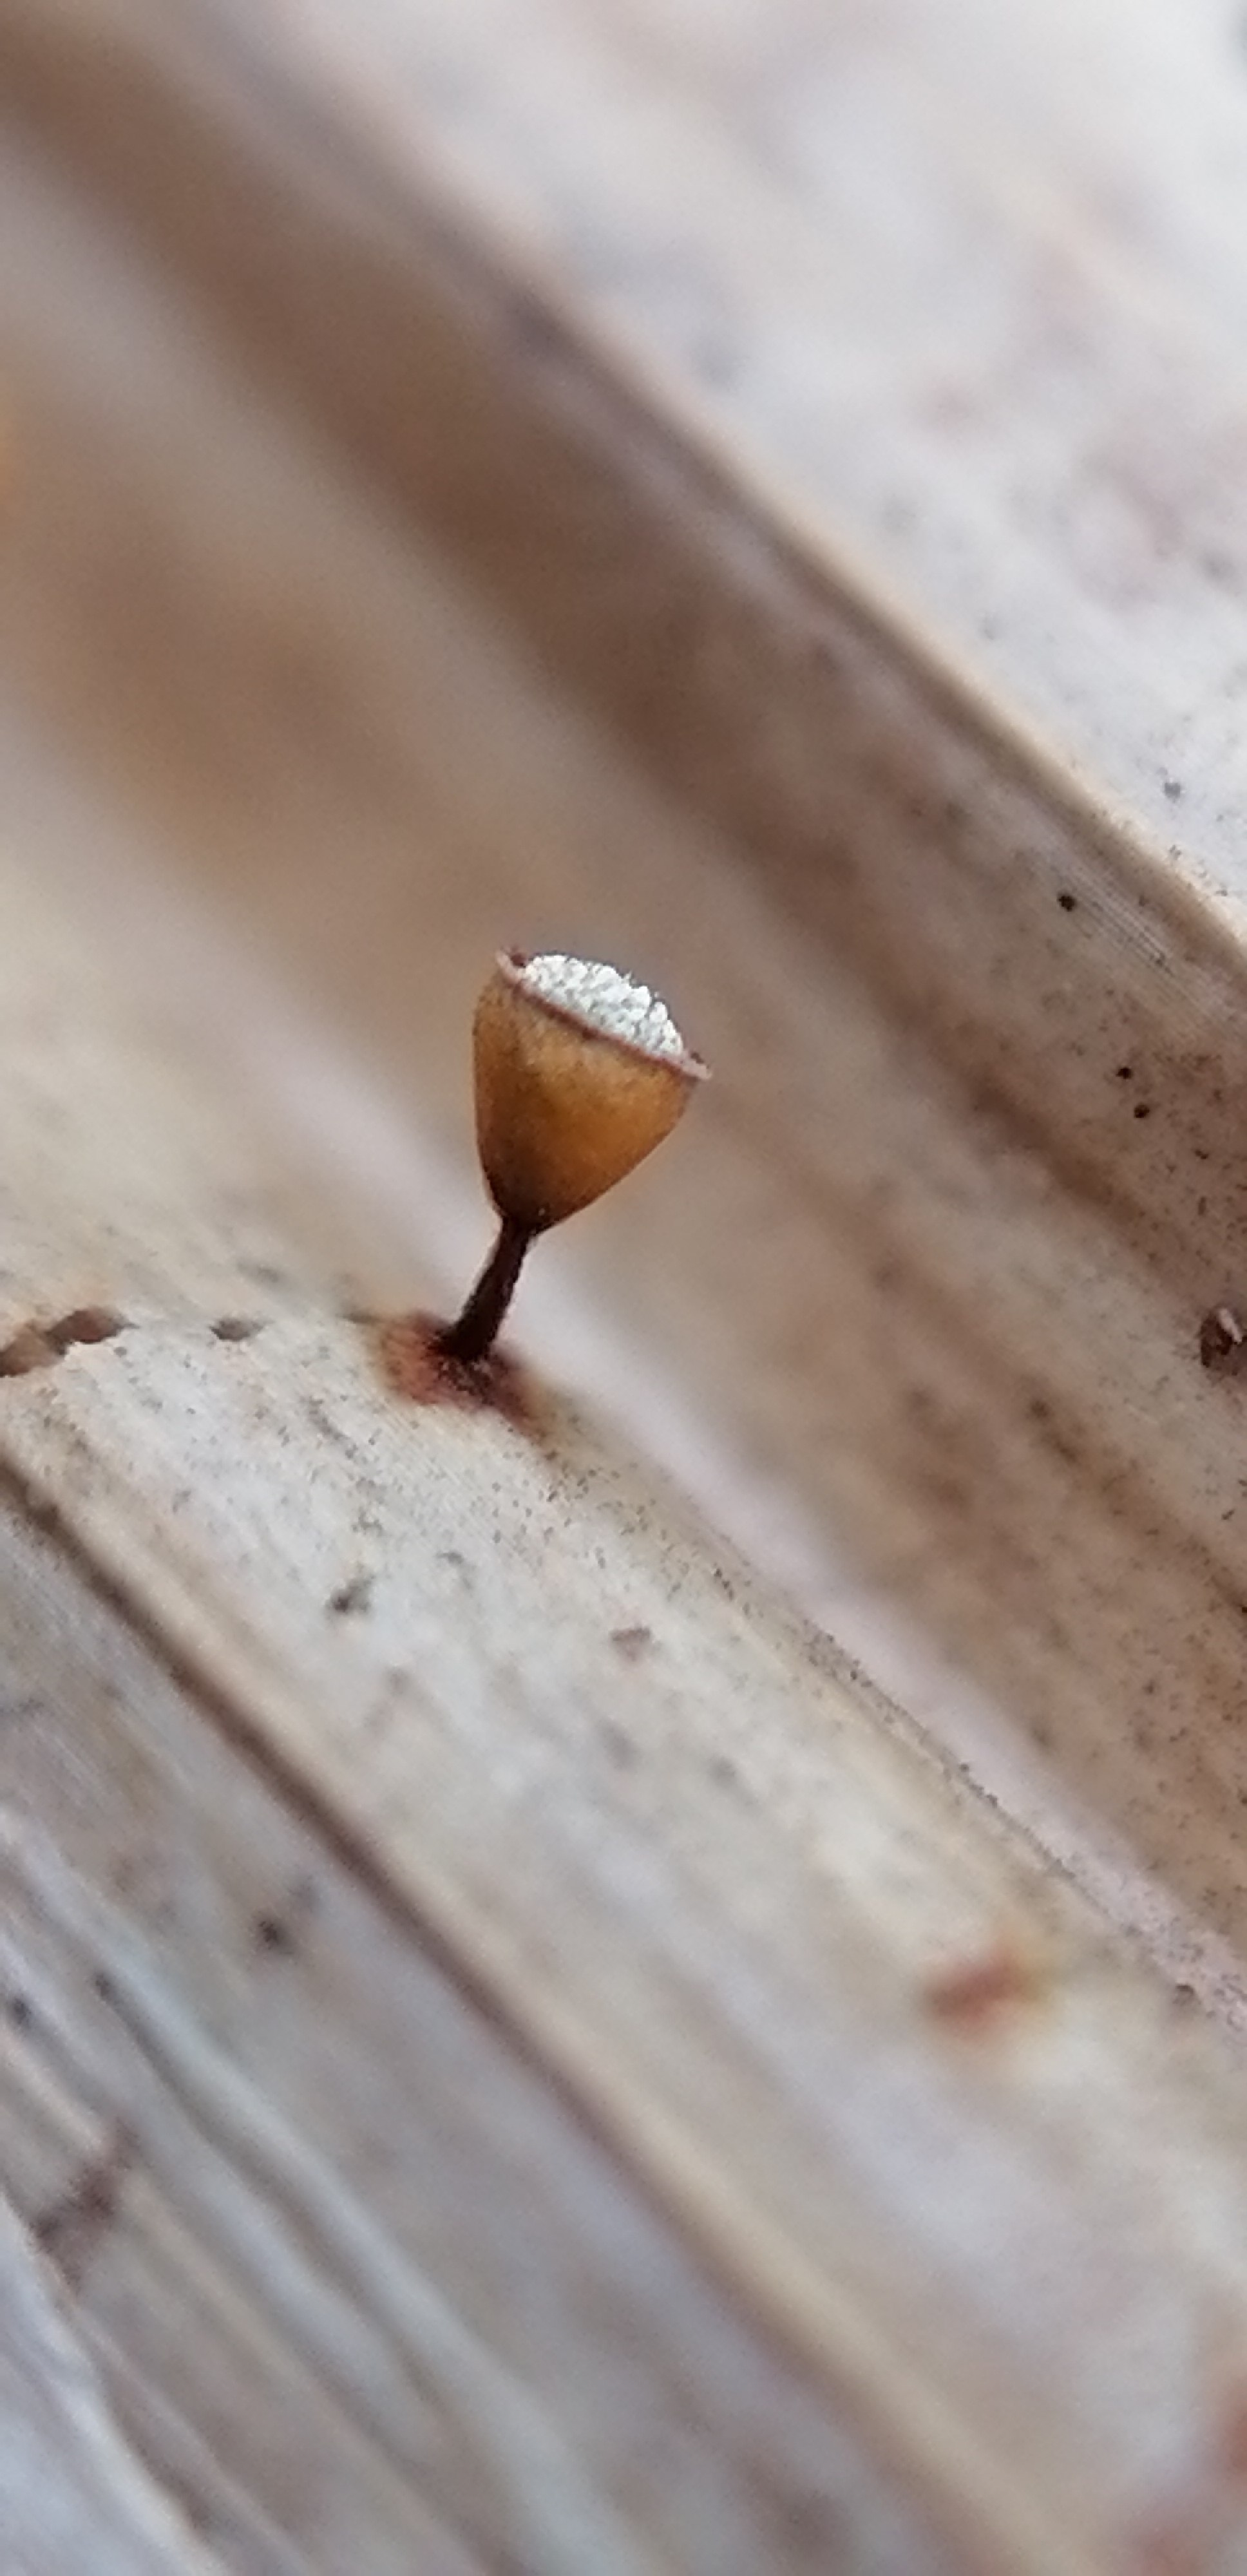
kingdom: Protozoa
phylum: Mycetozoa
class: Myxomycetes
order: Physarales
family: Physaraceae
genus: Craterium
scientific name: Craterium minutum
